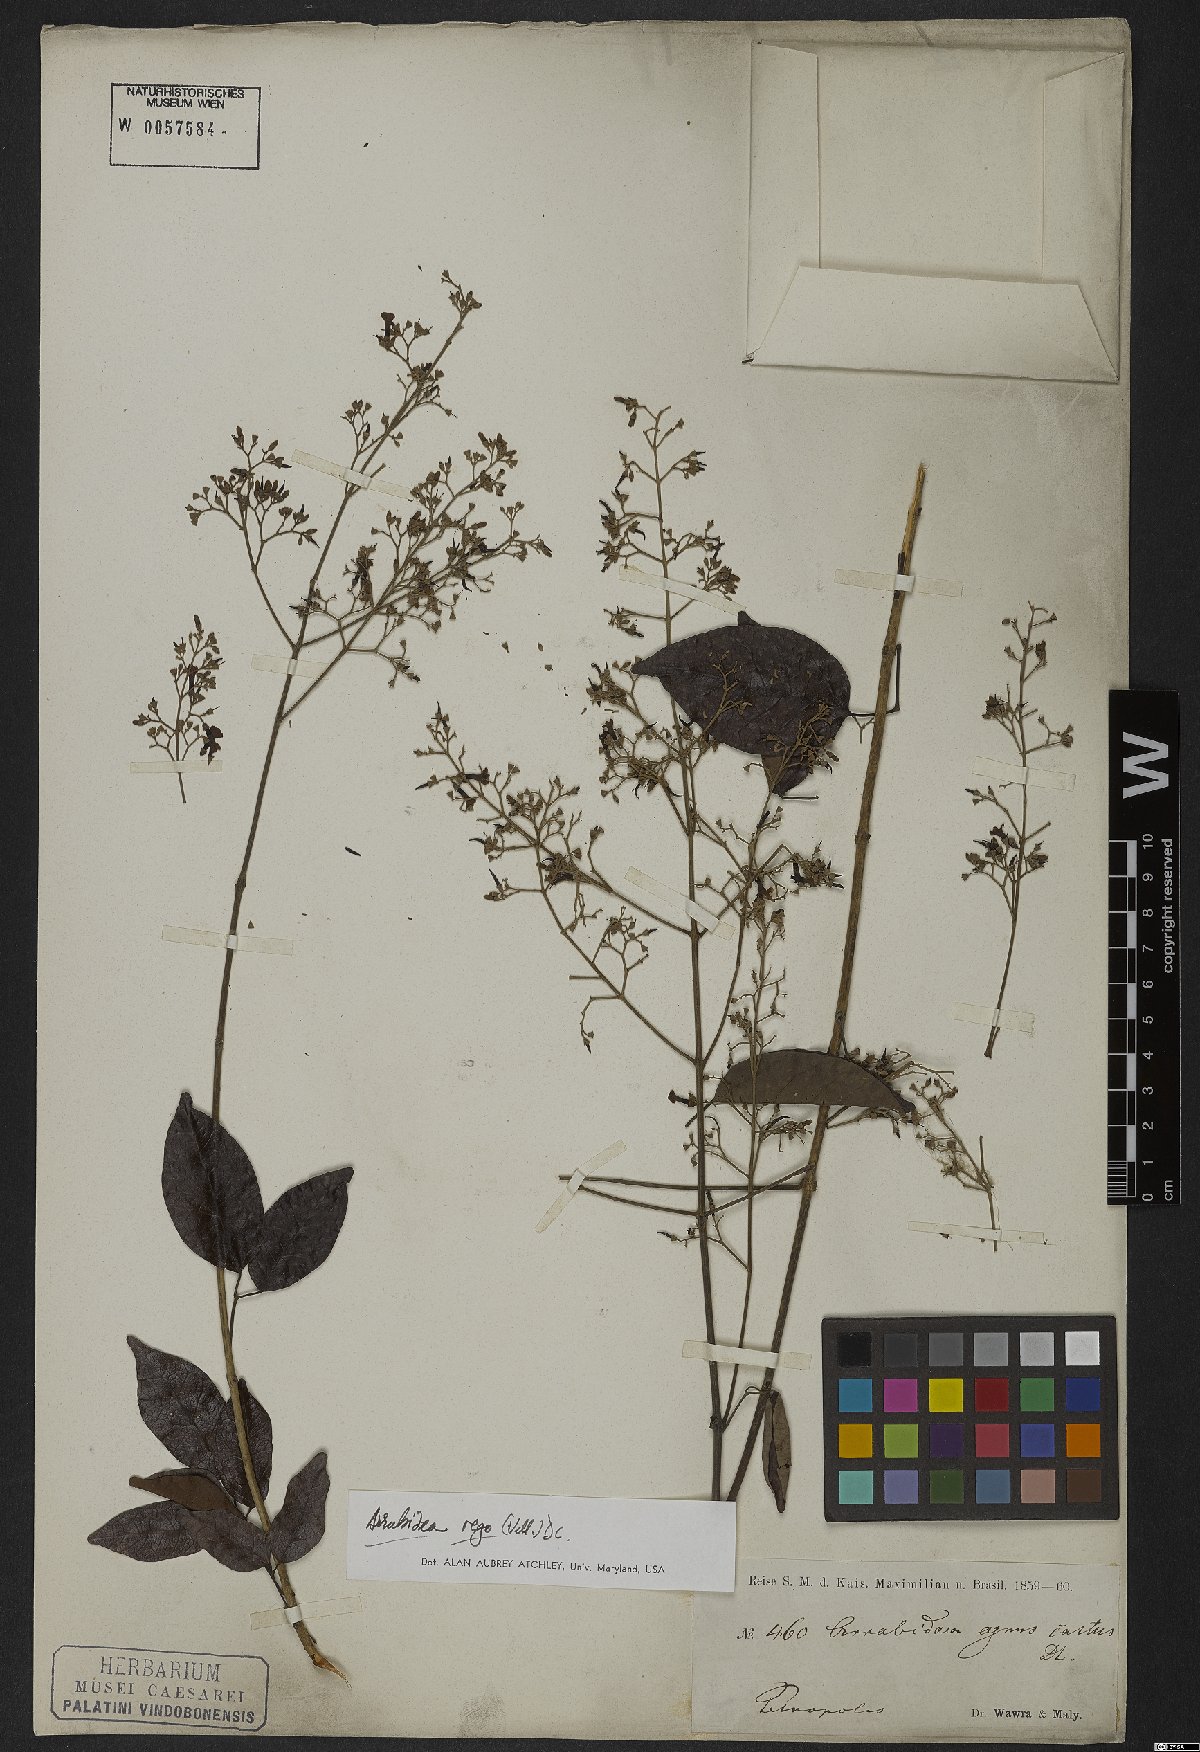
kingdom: Plantae
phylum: Tracheophyta
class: Magnoliopsida
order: Lamiales
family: Bignoniaceae
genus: Fridericia
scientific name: Fridericia rego
